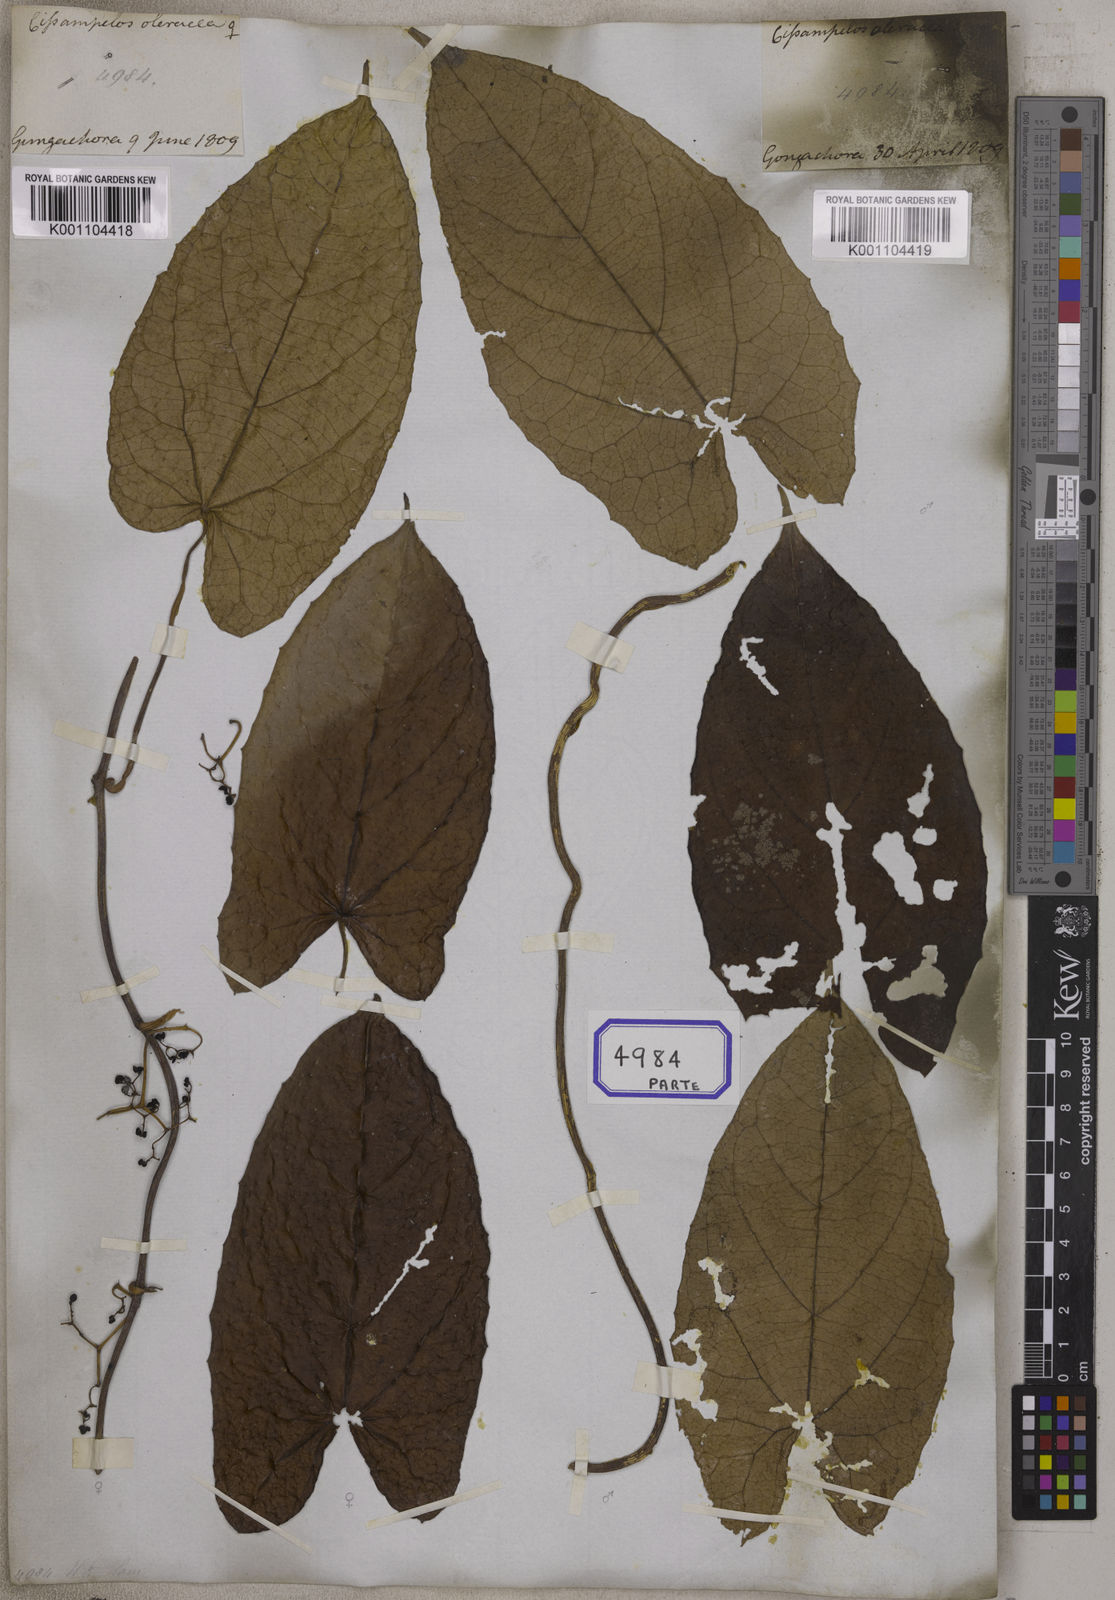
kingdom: Plantae
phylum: Tracheophyta
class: Magnoliopsida
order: Ranunculales
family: Menispermaceae
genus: Cissampelos
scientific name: Cissampelos
